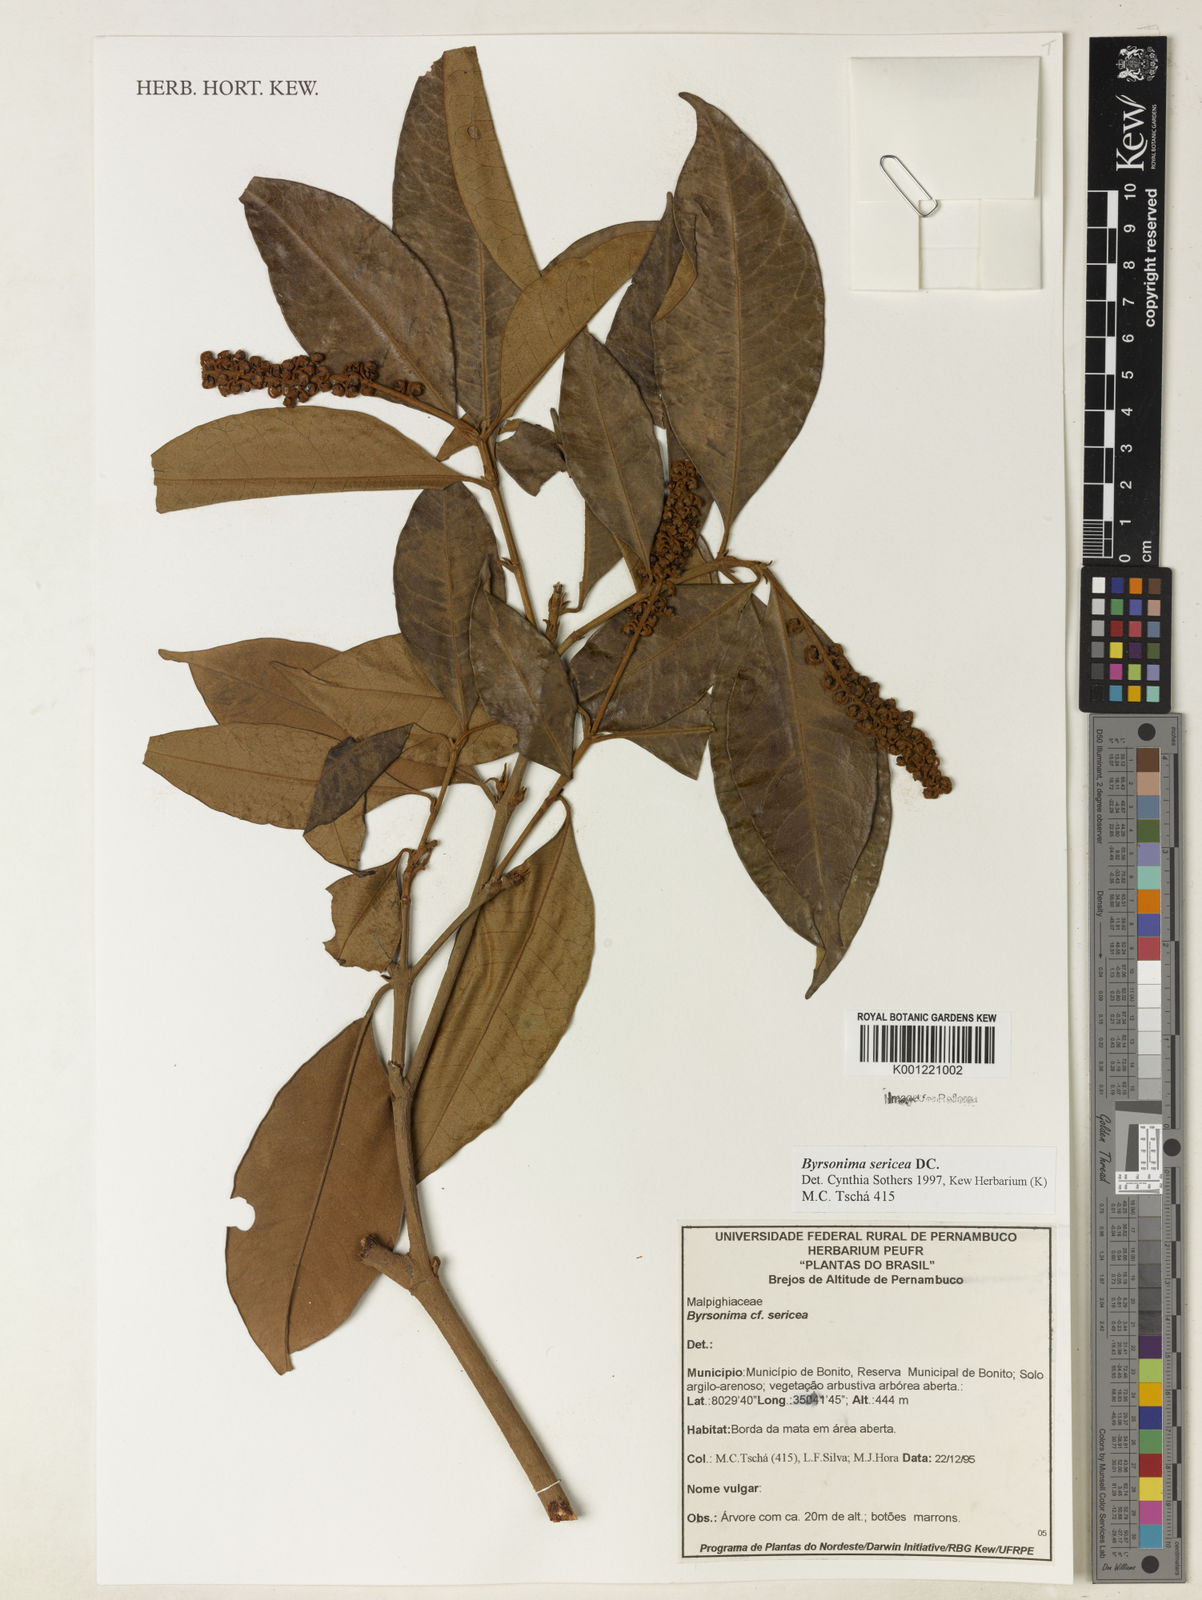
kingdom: Plantae
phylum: Tracheophyta
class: Magnoliopsida
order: Malpighiales
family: Malpighiaceae
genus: Byrsonima
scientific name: Byrsonima sericea
